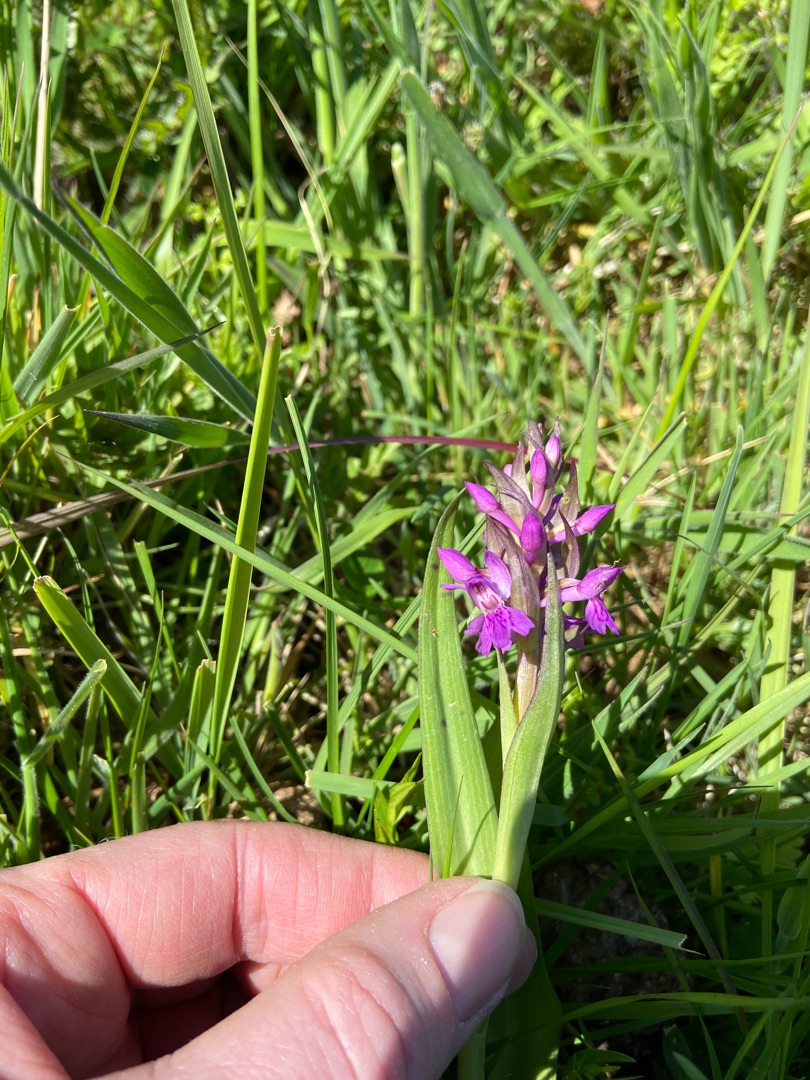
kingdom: Plantae
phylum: Tracheophyta
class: Liliopsida
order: Asparagales
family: Orchidaceae
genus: Dactylorhiza
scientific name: Dactylorhiza majalis
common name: Maj-gøgeurt
